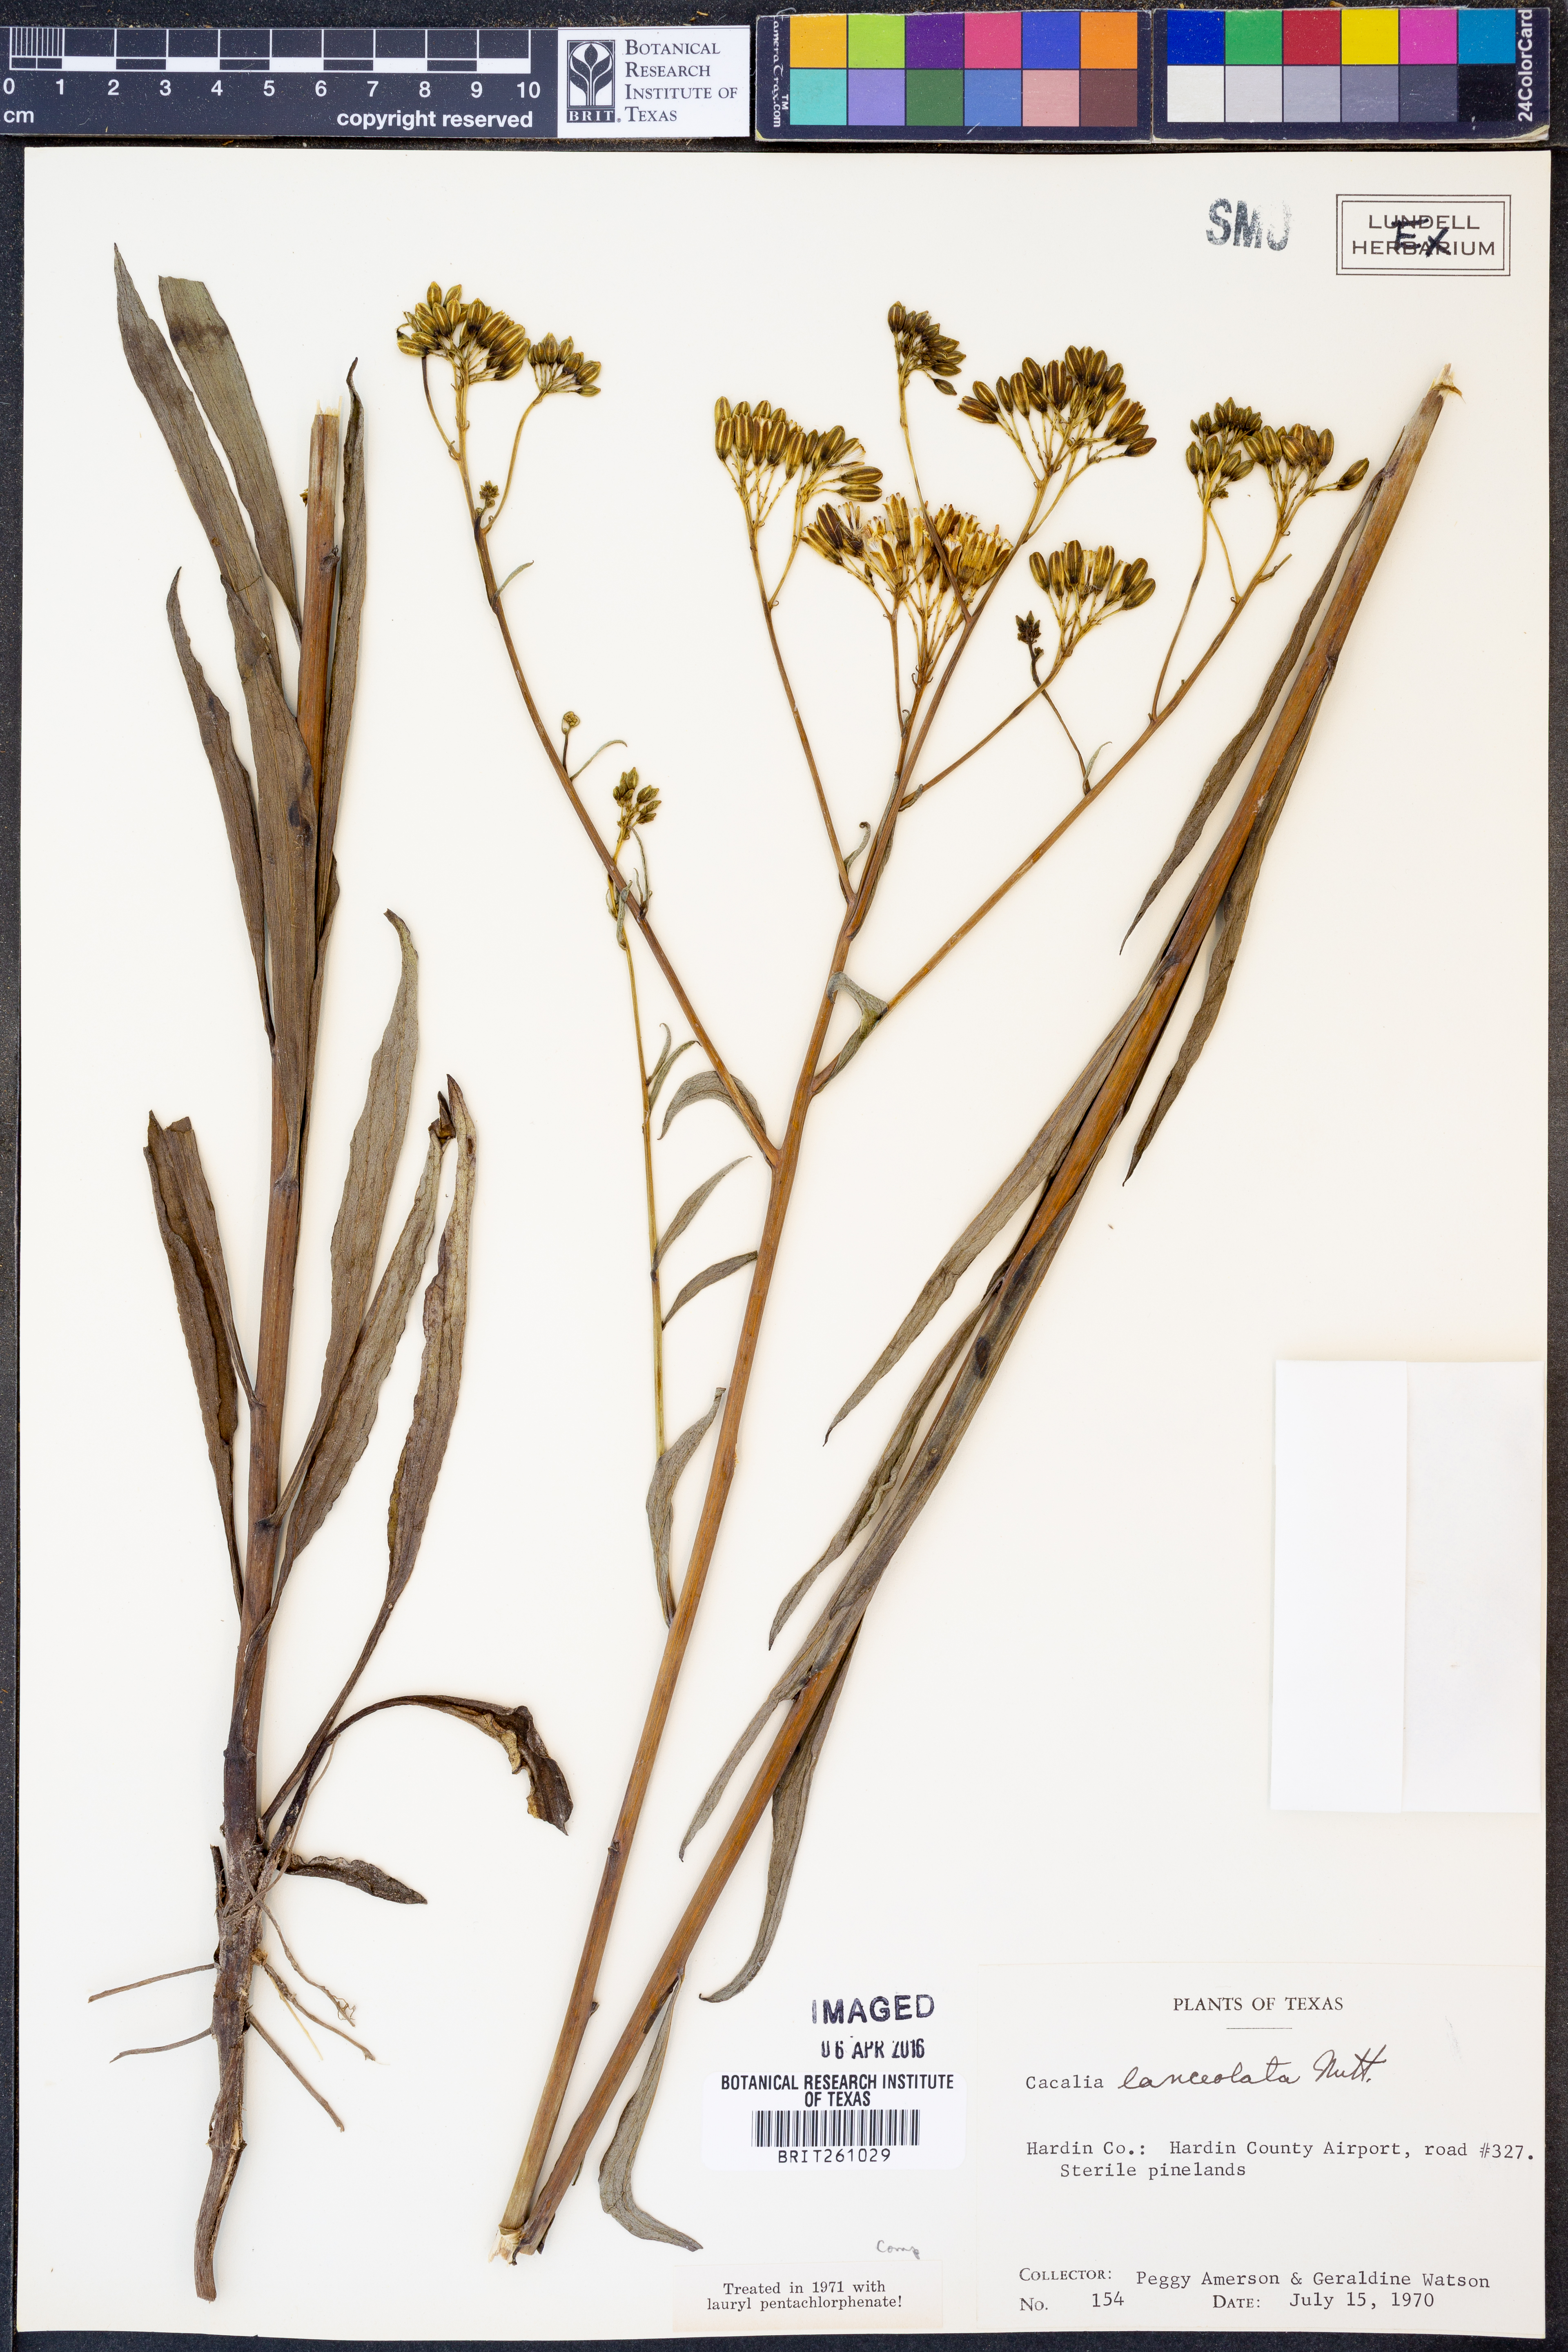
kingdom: Plantae
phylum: Tracheophyta
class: Magnoliopsida
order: Asterales
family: Asteraceae
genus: Arnoglossum
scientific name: Arnoglossum ovatum
